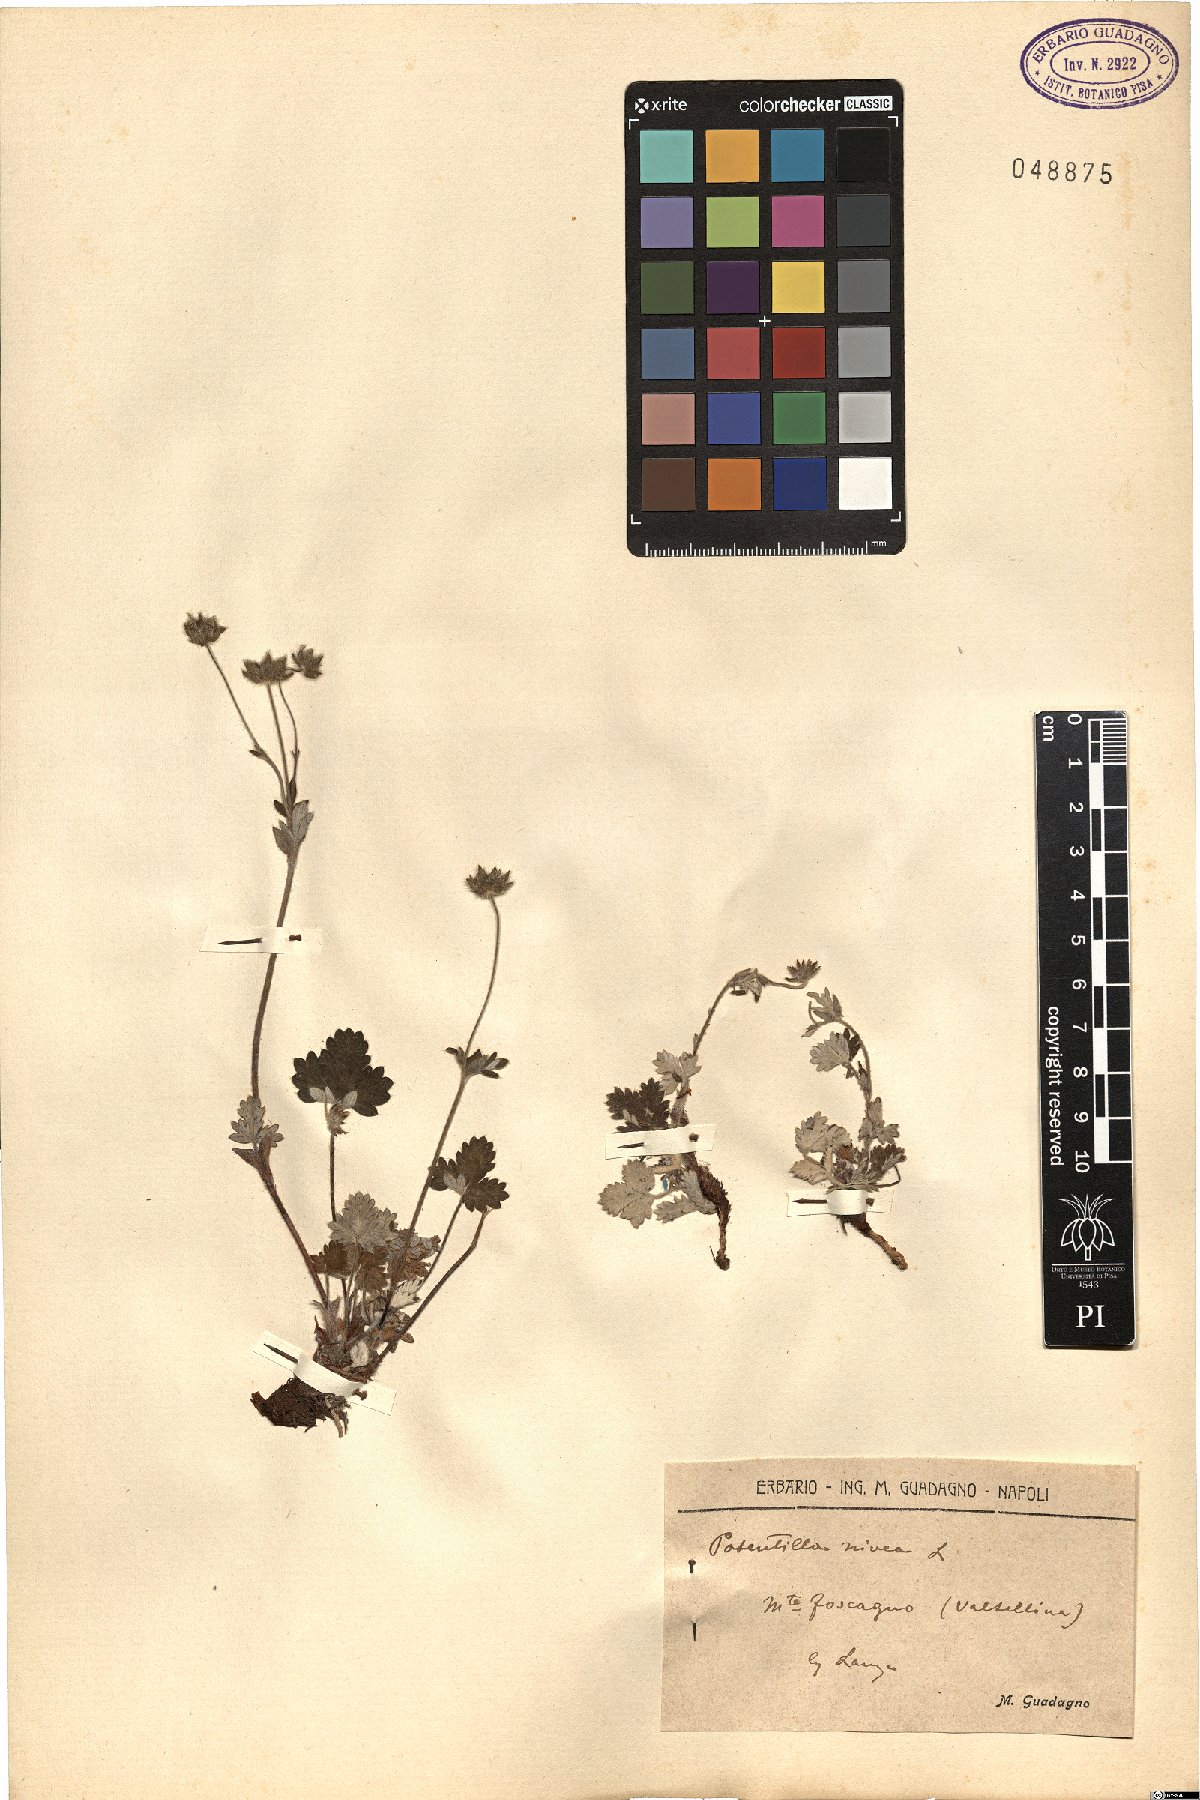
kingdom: Plantae
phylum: Tracheophyta
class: Magnoliopsida
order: Rosales
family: Rosaceae
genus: Potentilla
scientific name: Potentilla nivea
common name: Snow cinquefoil
